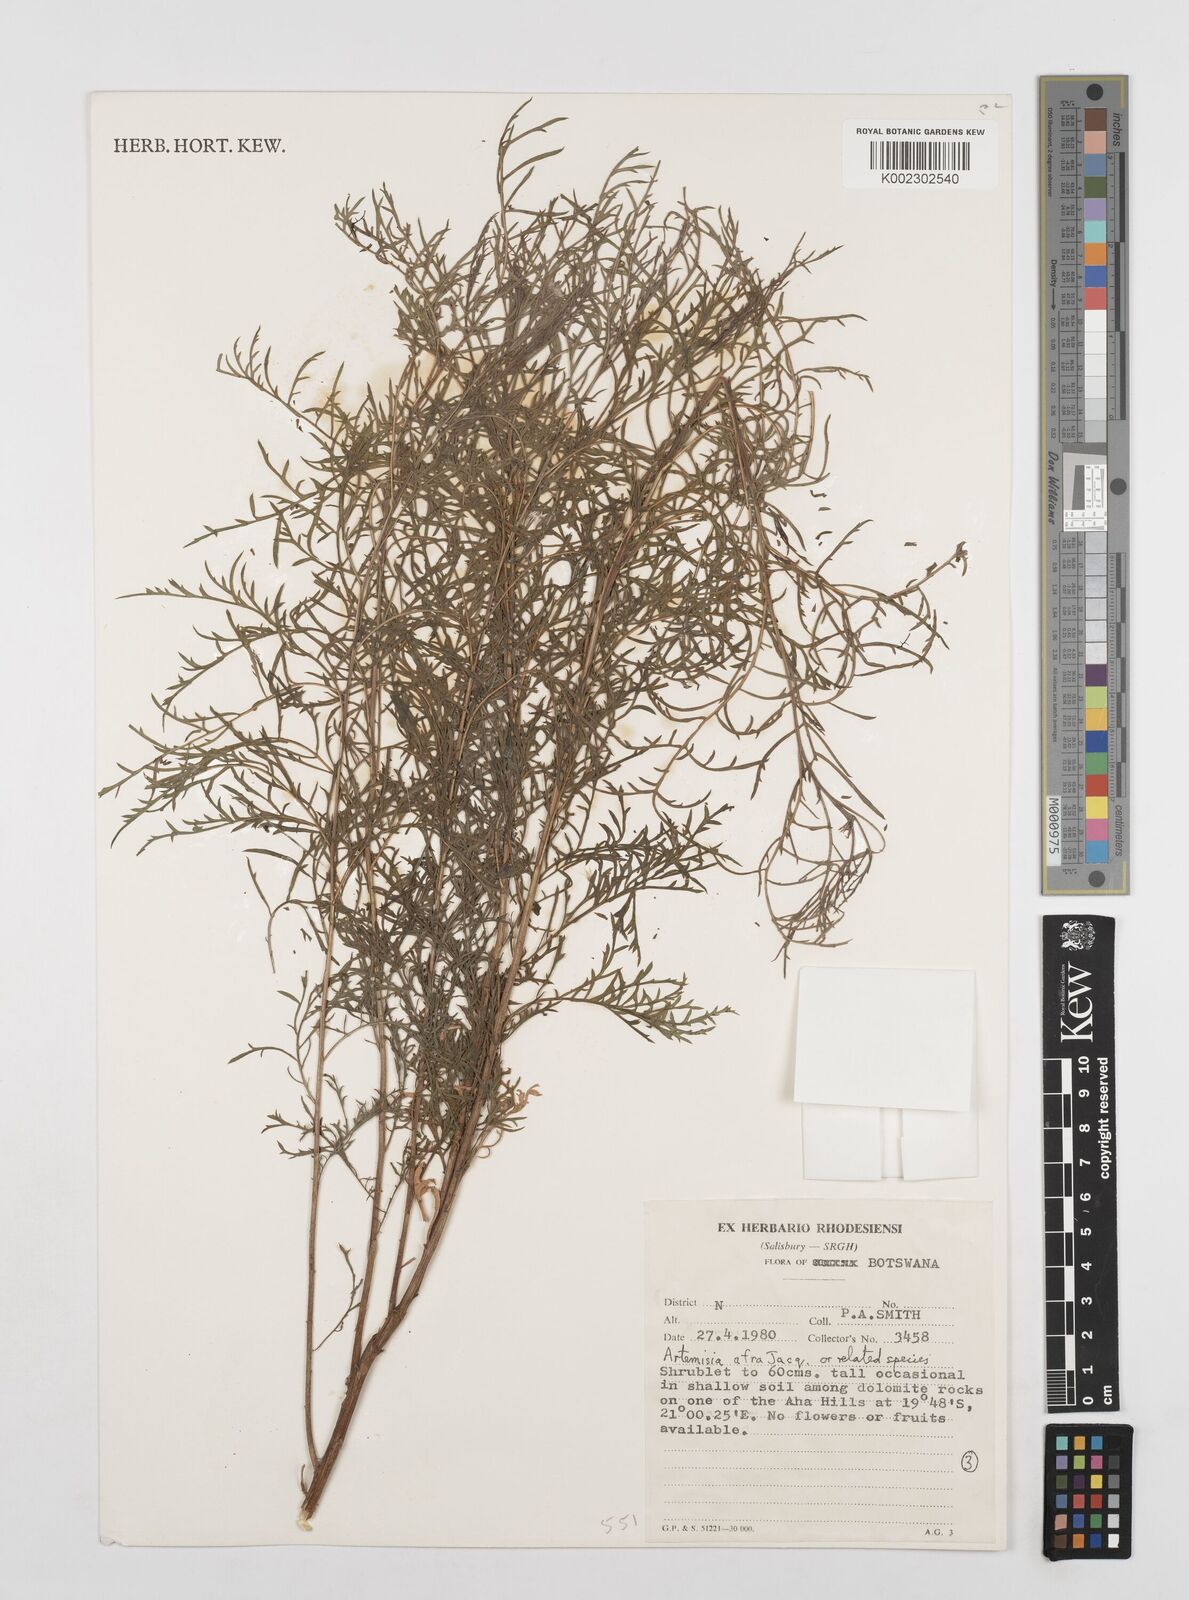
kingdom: Plantae
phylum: Tracheophyta
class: Magnoliopsida
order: Asterales
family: Asteraceae
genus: Artemisia
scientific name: Artemisia afra
